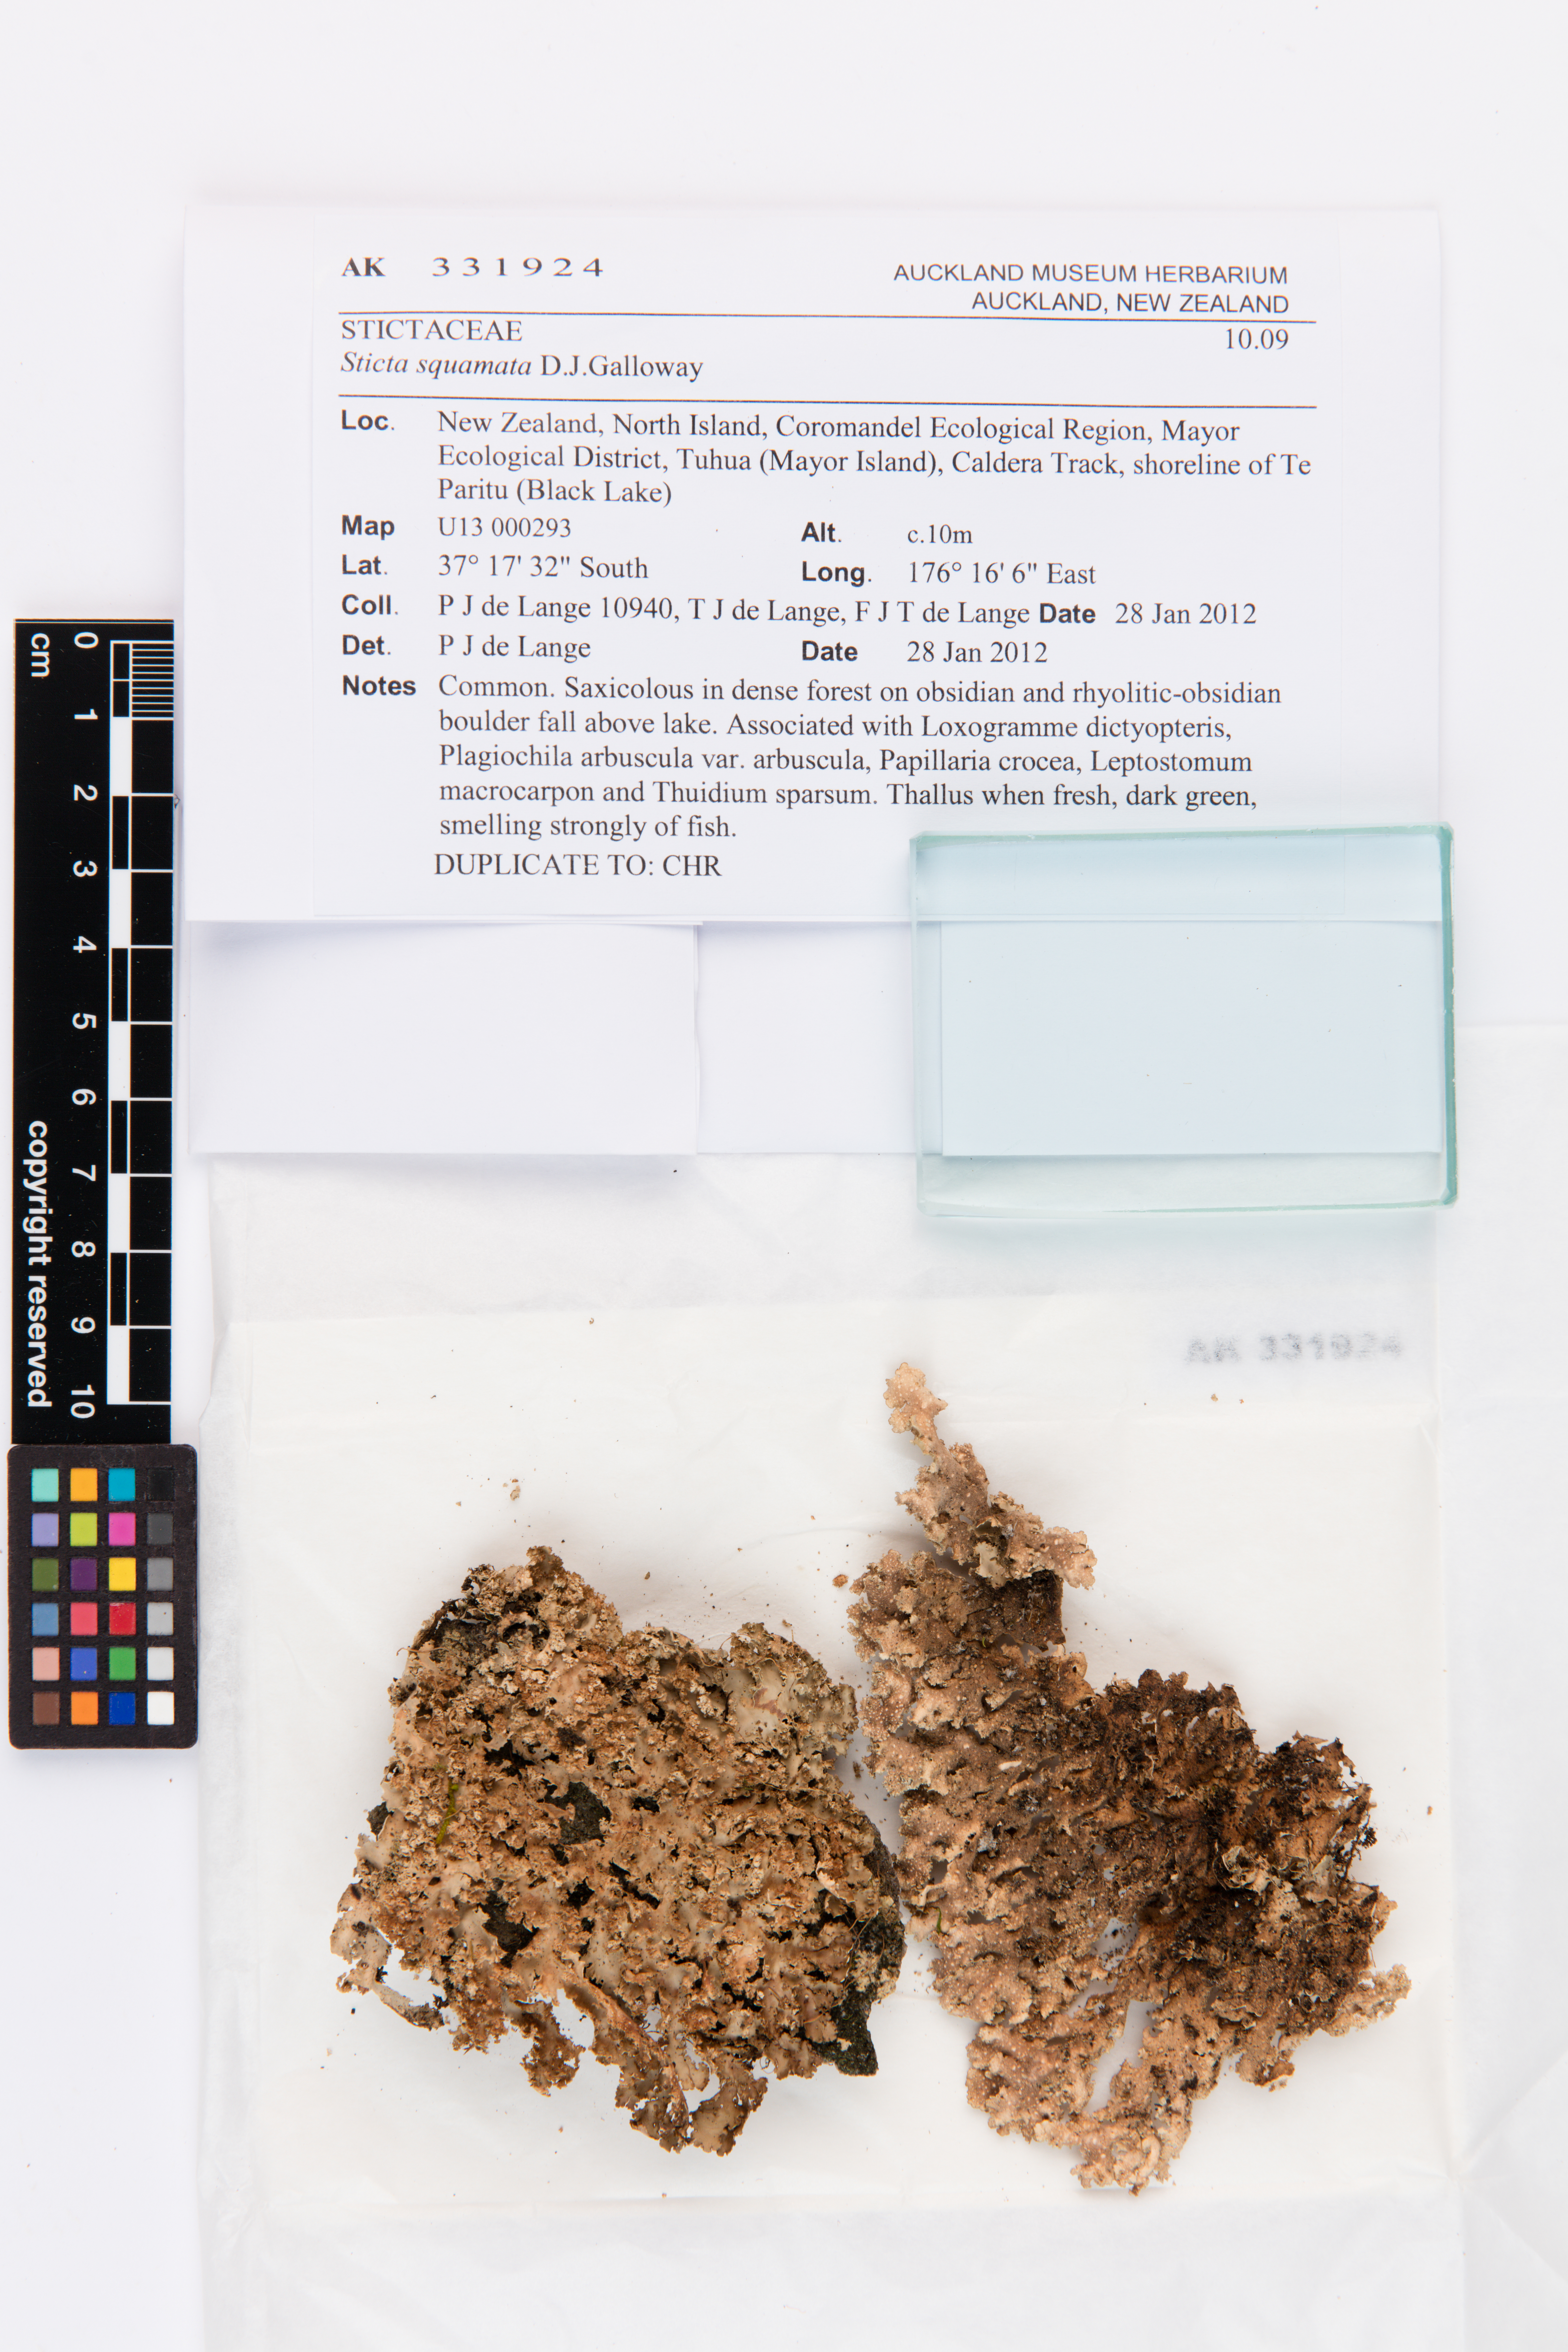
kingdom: Fungi
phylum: Ascomycota
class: Lecanoromycetes
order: Peltigerales
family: Lobariaceae
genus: Sticta
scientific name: Sticta squamata
